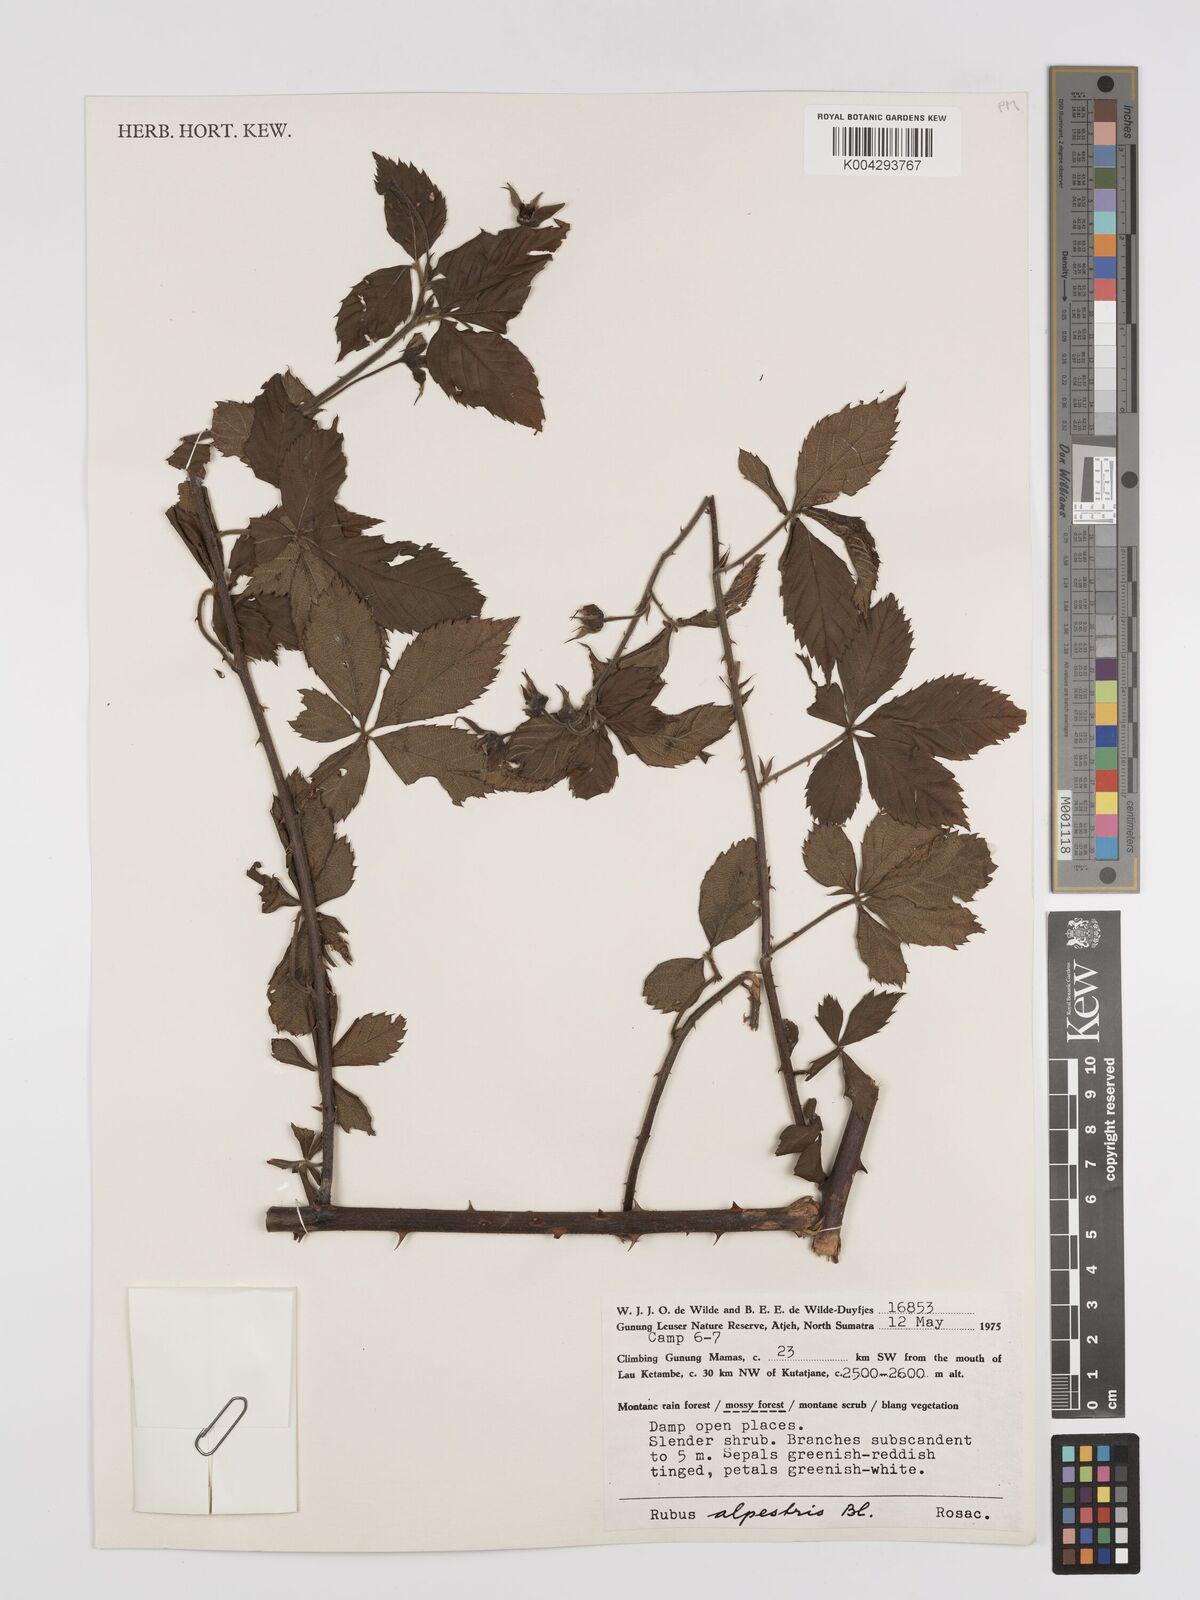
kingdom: Plantae
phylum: Tracheophyta
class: Magnoliopsida
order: Rosales
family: Rosaceae
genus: Rubus
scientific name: Rubus alpestris
